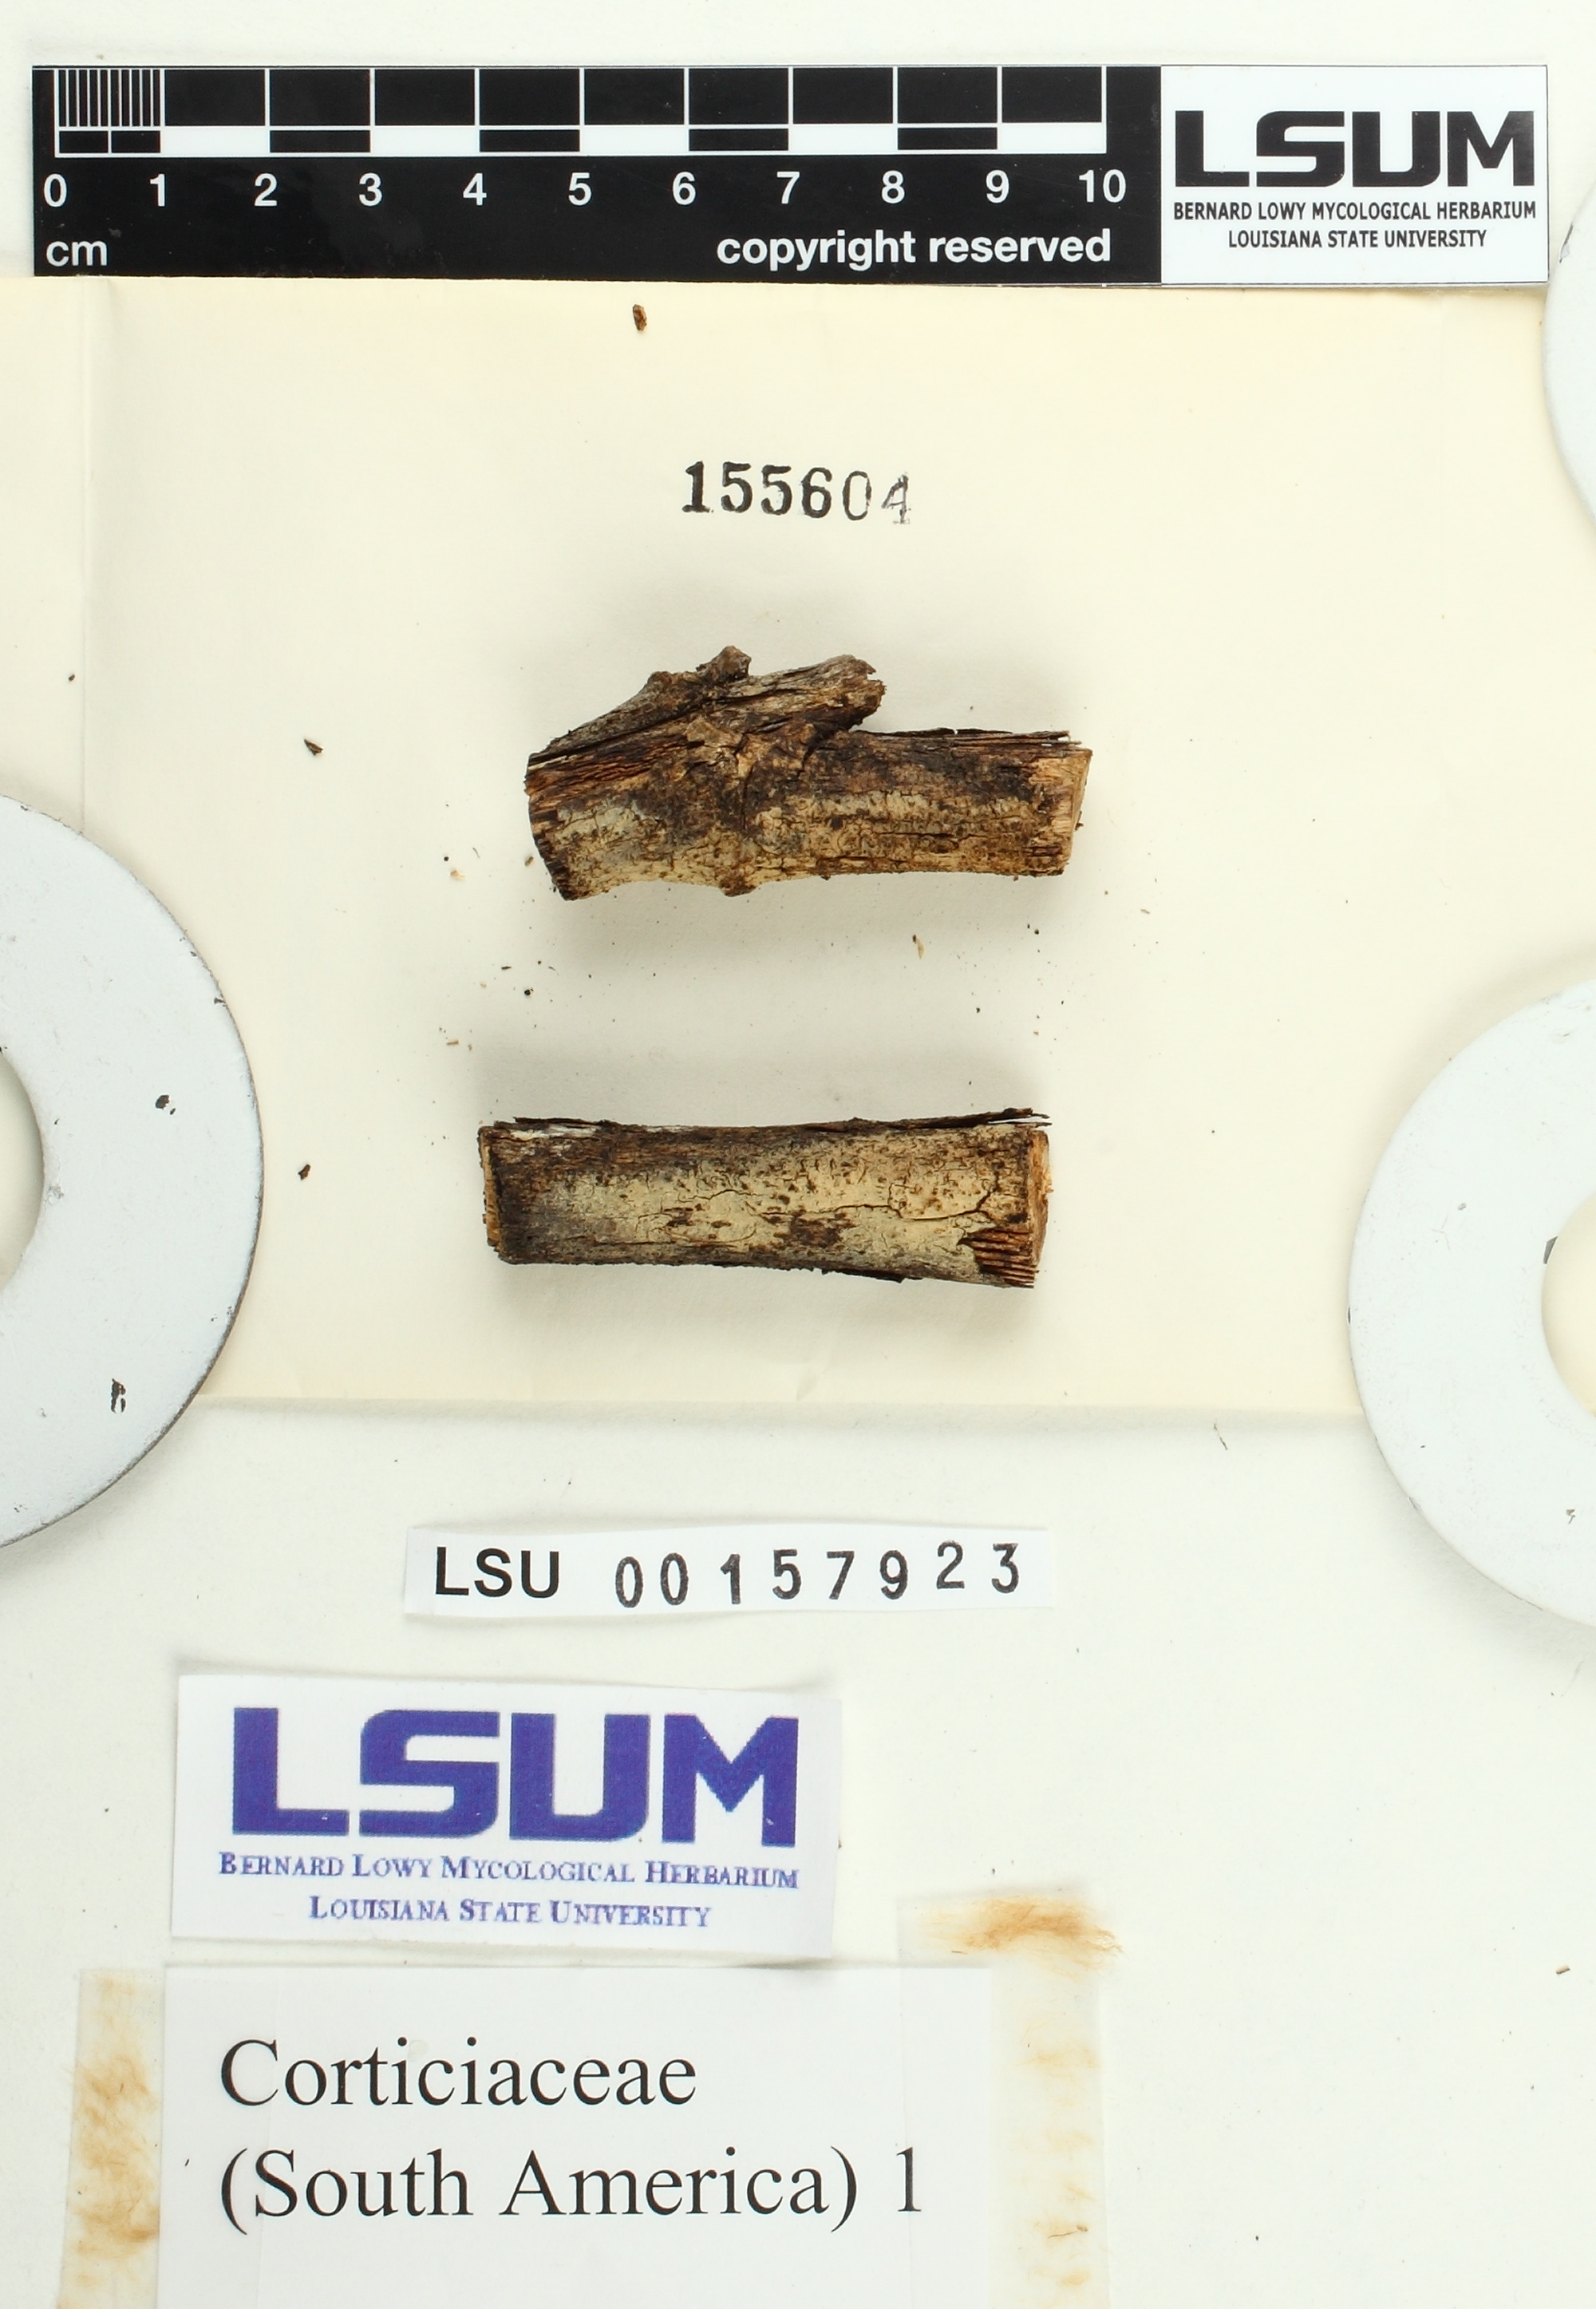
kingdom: Fungi
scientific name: Fungi
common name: Fungi
